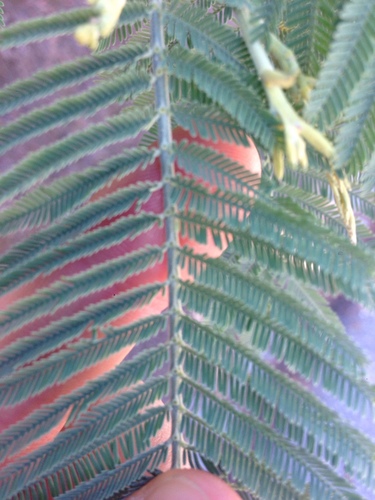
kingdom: Plantae
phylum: Tracheophyta
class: Magnoliopsida
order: Fabales
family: Fabaceae
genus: Acacia
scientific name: Acacia dealbata
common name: Silver wattle
